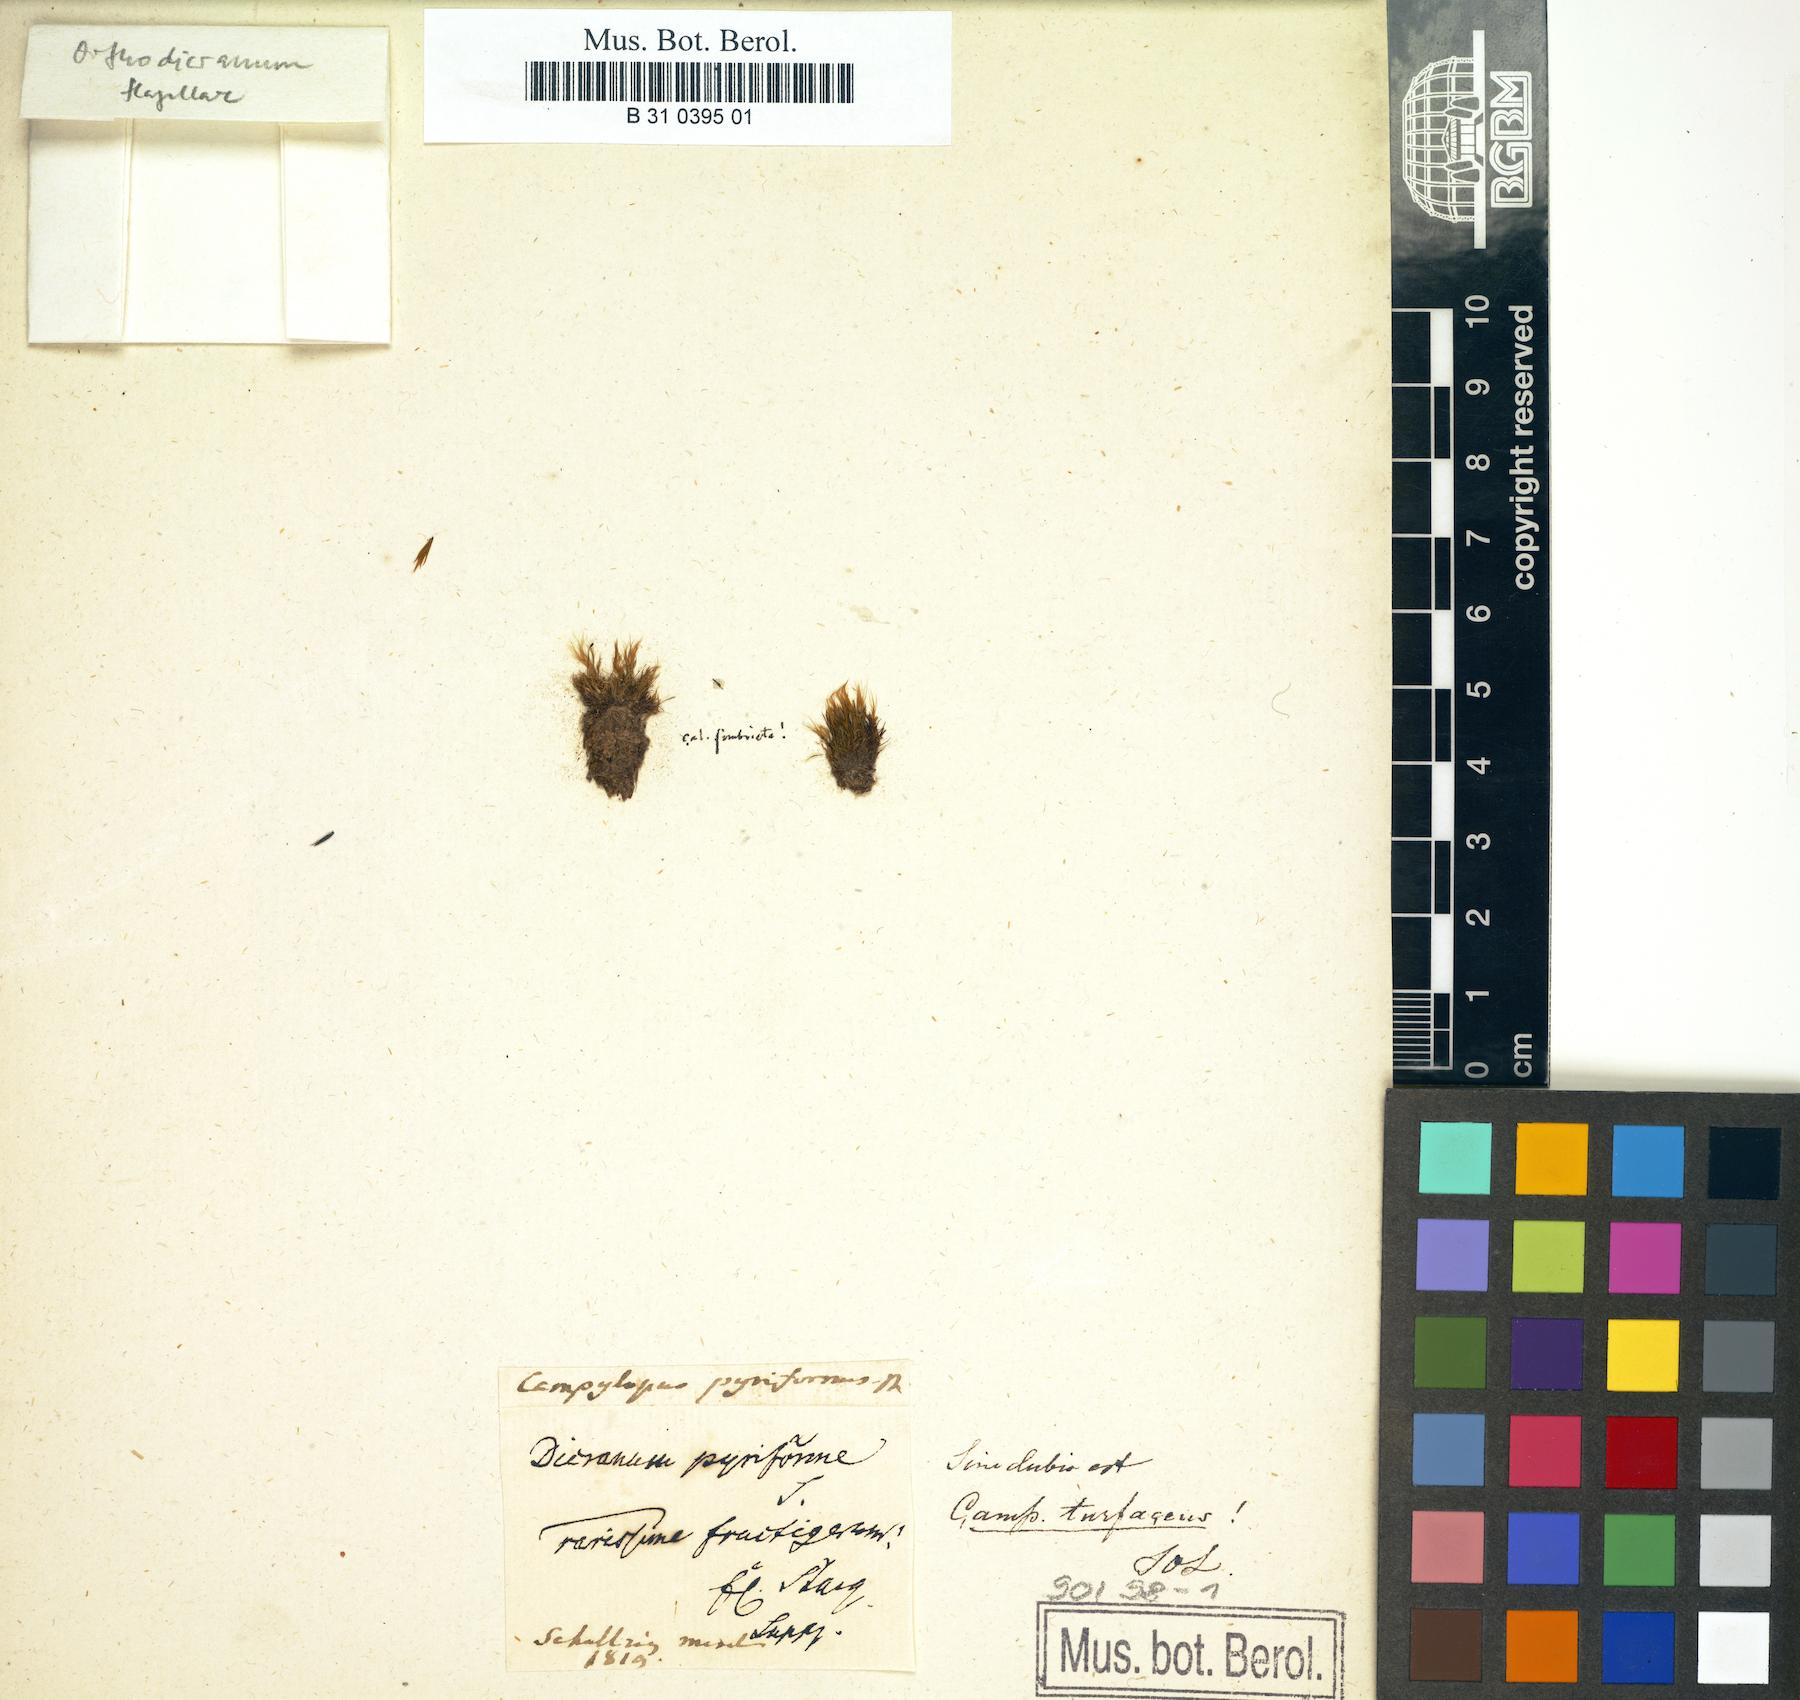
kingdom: Plantae
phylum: Bryophyta
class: Bryopsida
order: Dicranales
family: Leucobryaceae
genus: Campylopus
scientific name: Campylopus pyriformis
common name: Dwarf swan-neck moss
